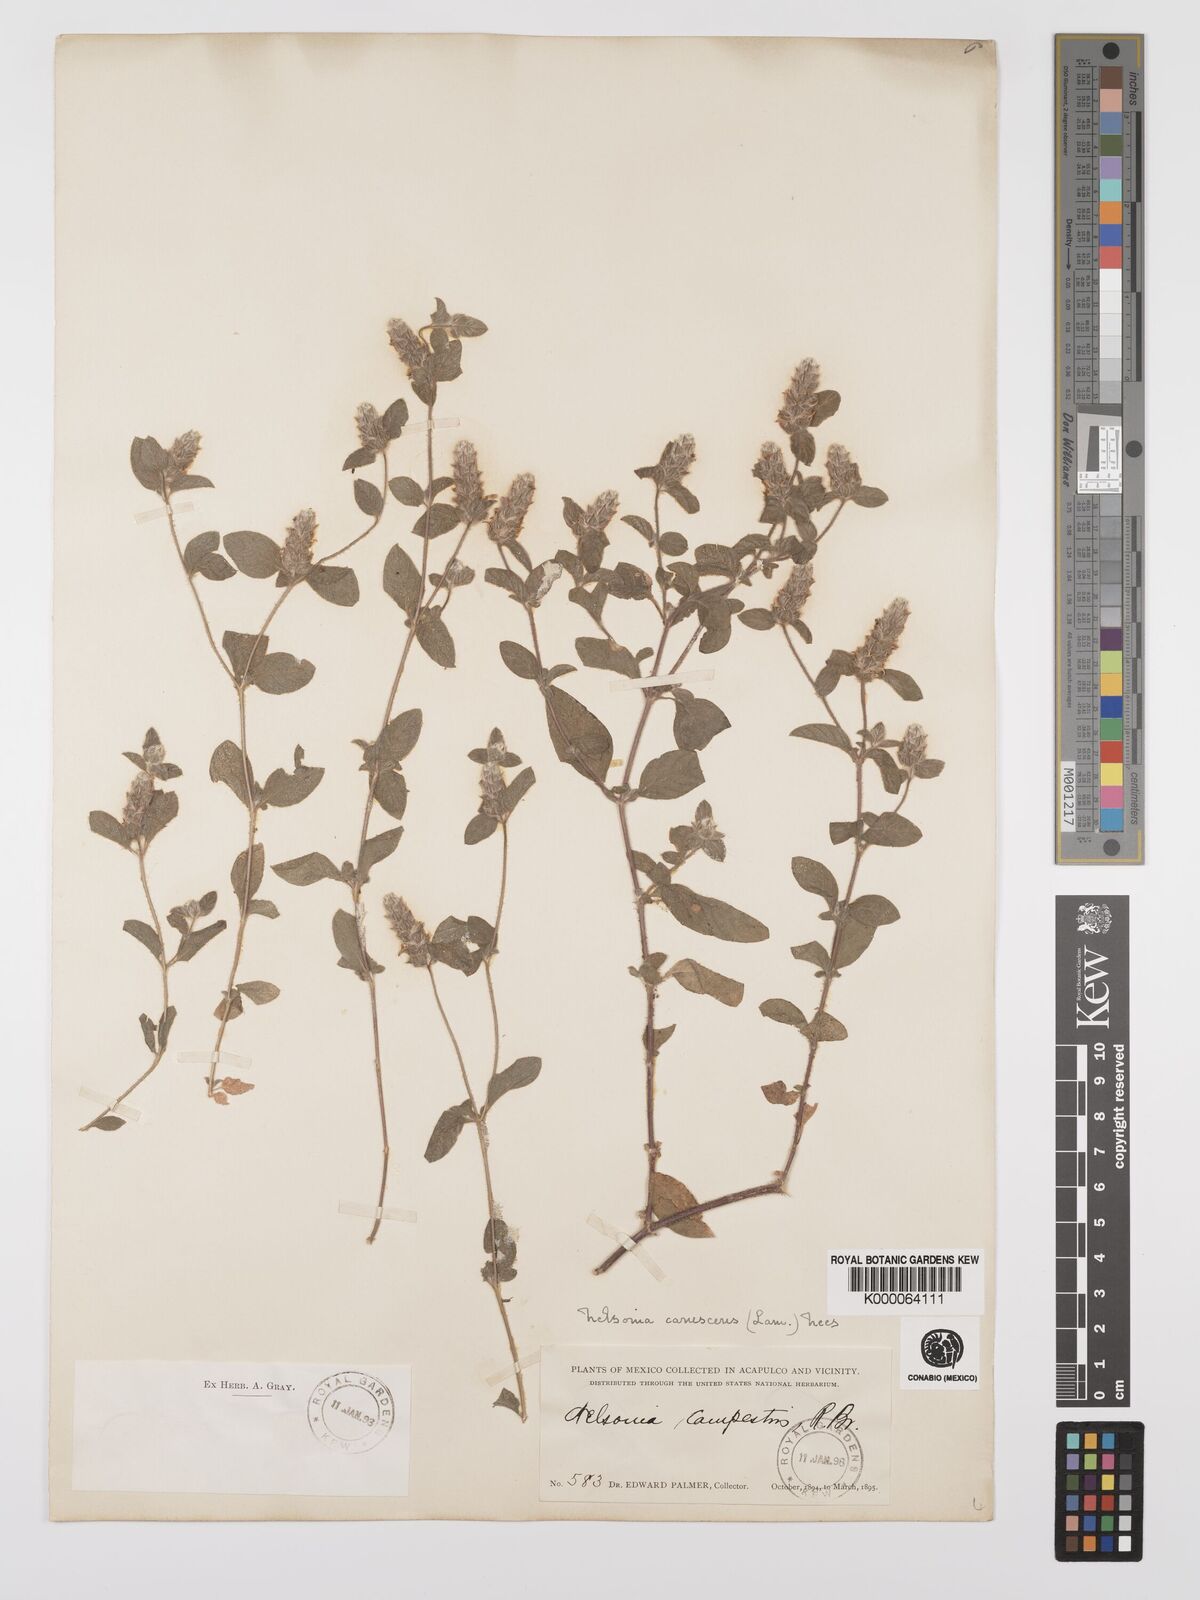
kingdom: Plantae
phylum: Tracheophyta
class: Magnoliopsida
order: Lamiales
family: Acanthaceae
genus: Nelsonia
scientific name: Nelsonia canescens
